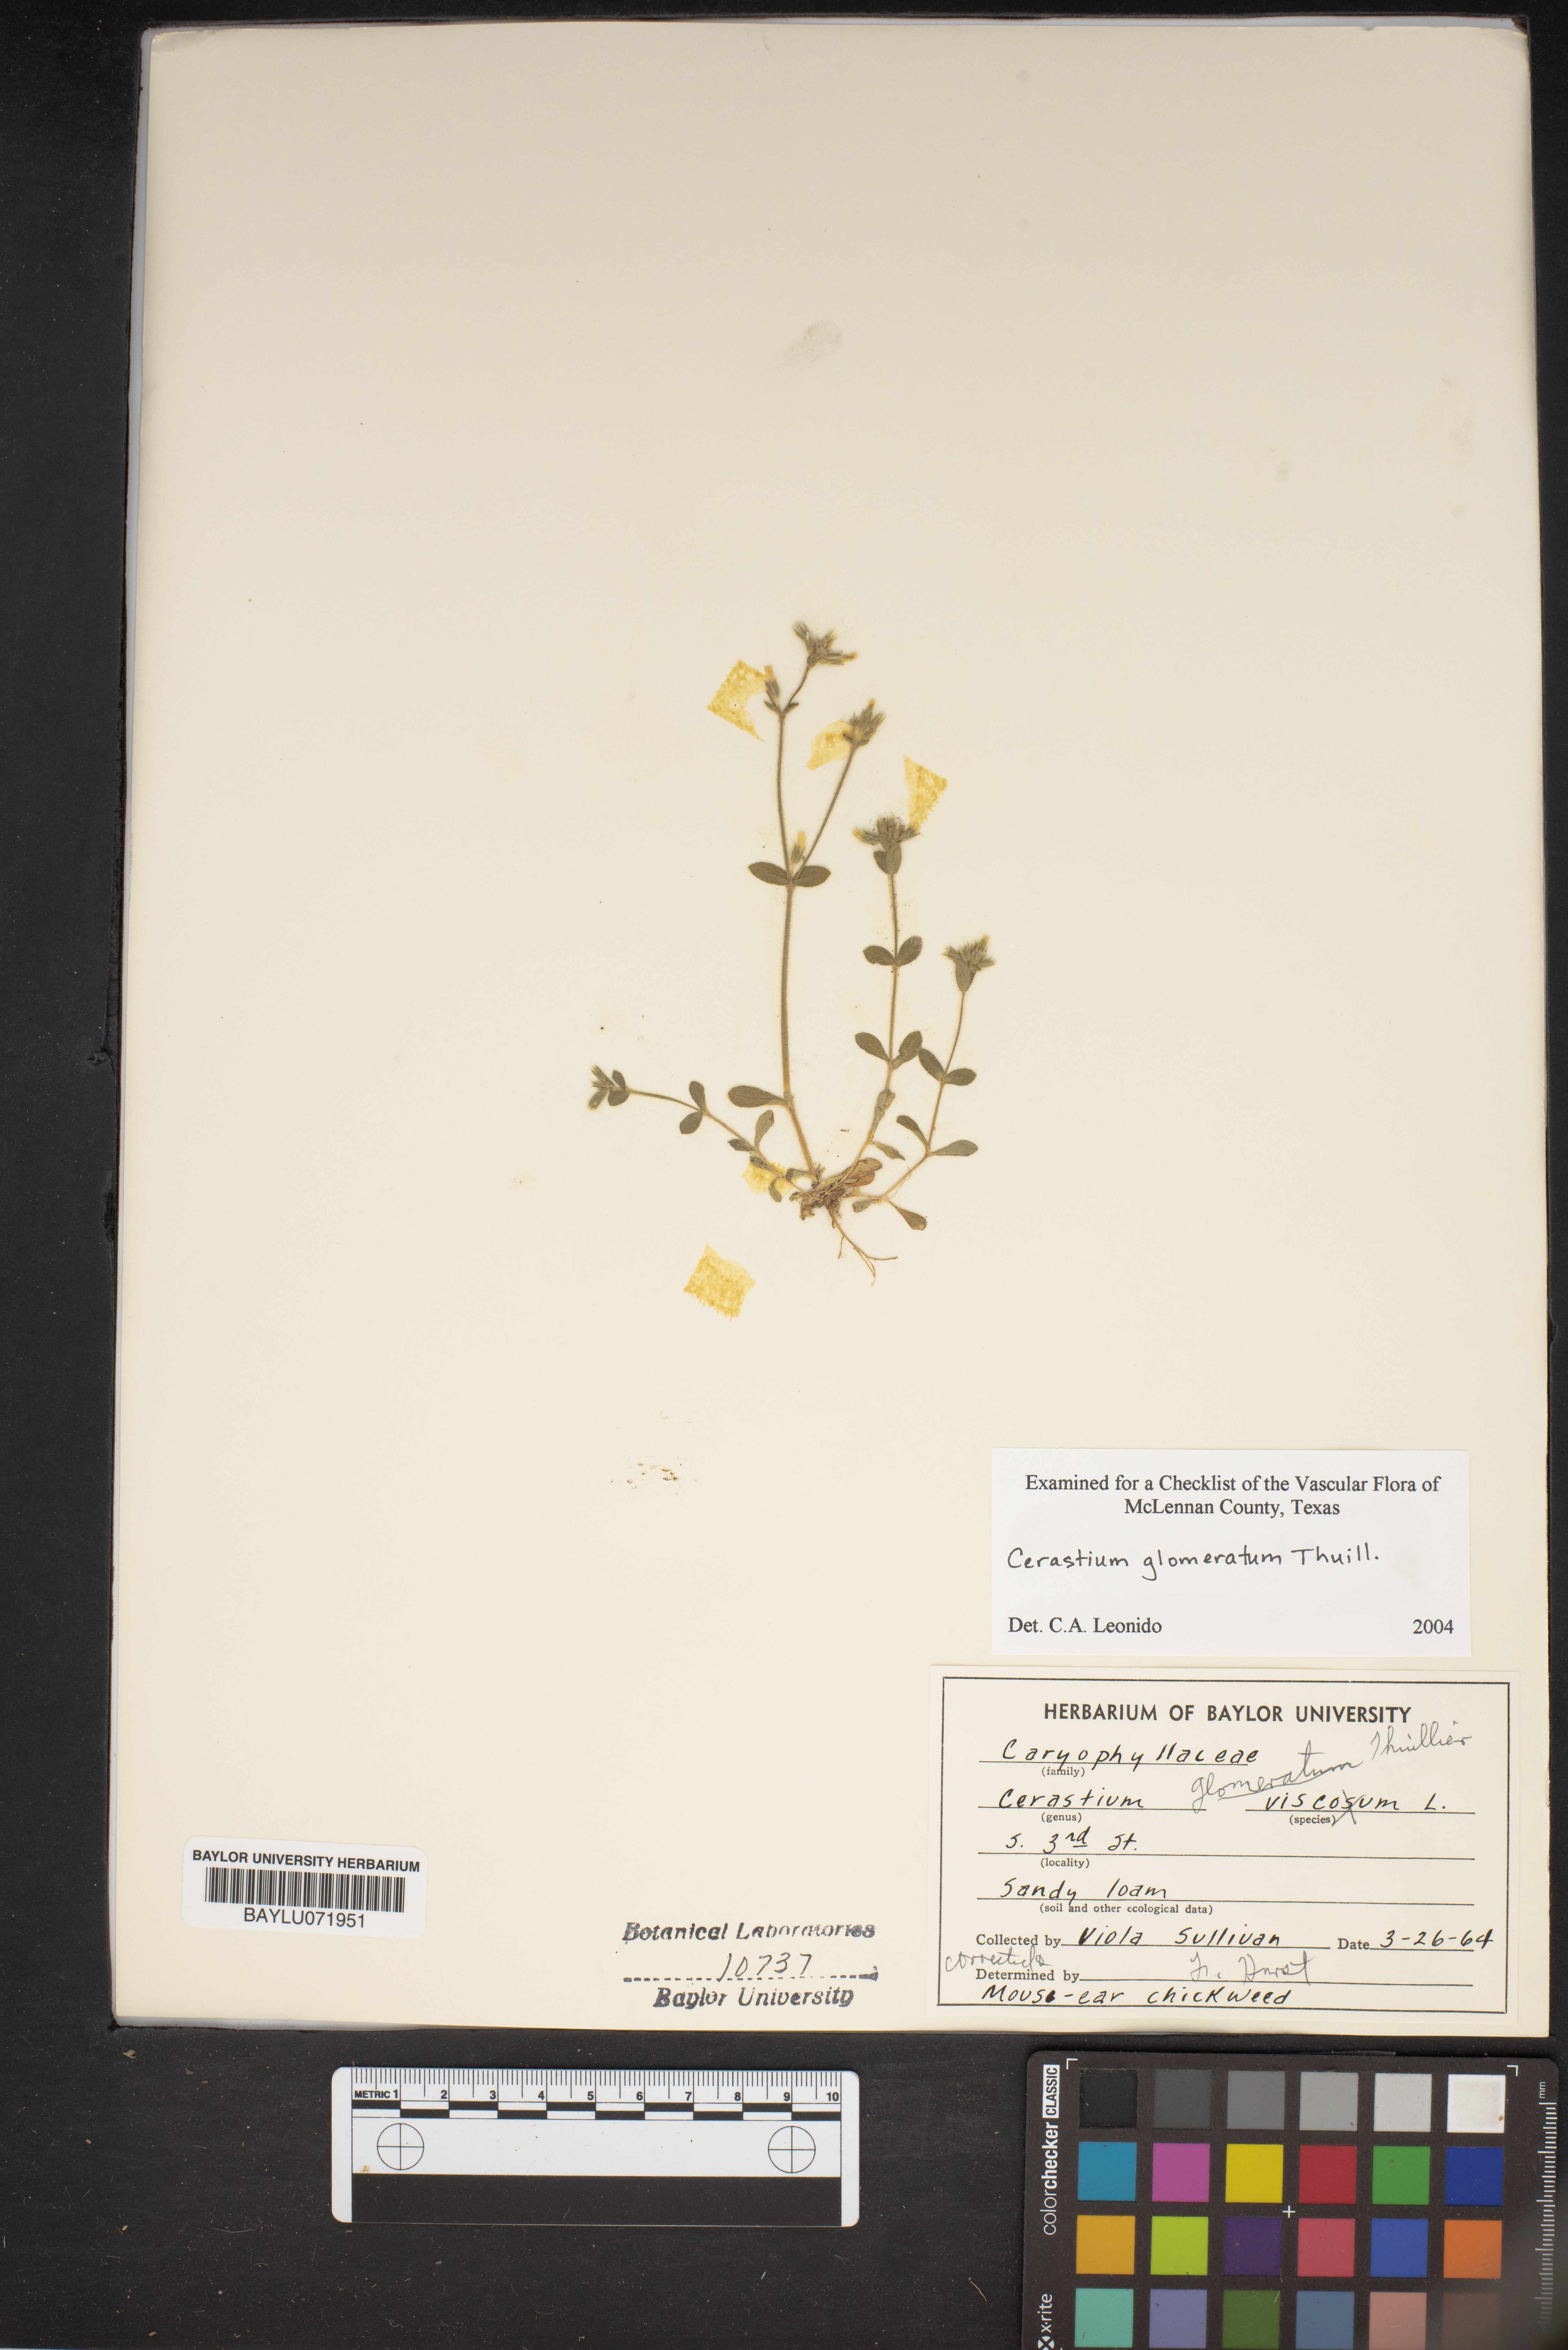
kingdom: Plantae
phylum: Tracheophyta
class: Magnoliopsida
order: Caryophyllales
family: Caryophyllaceae
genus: Cerastium
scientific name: Cerastium glomeratum
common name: Sticky chickweed
